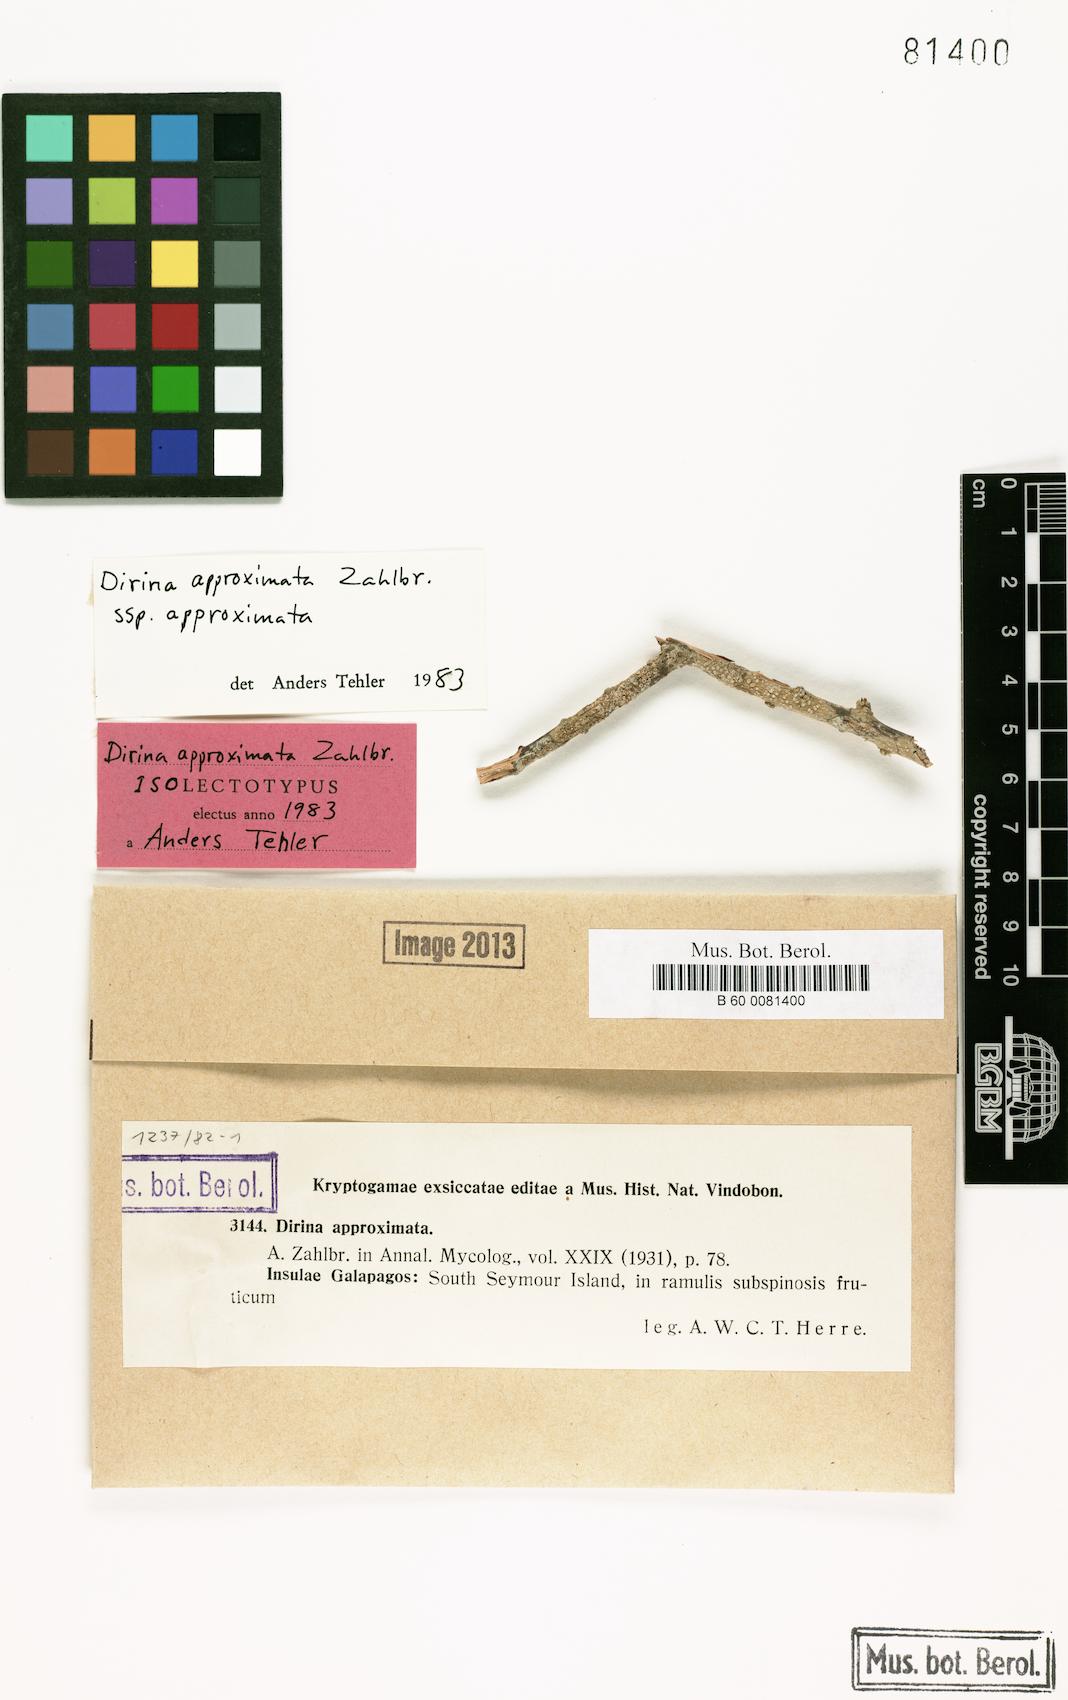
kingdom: Fungi
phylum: Ascomycota
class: Arthoniomycetes
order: Arthoniales
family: Roccellaceae
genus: Dirina
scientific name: Dirina approximata
